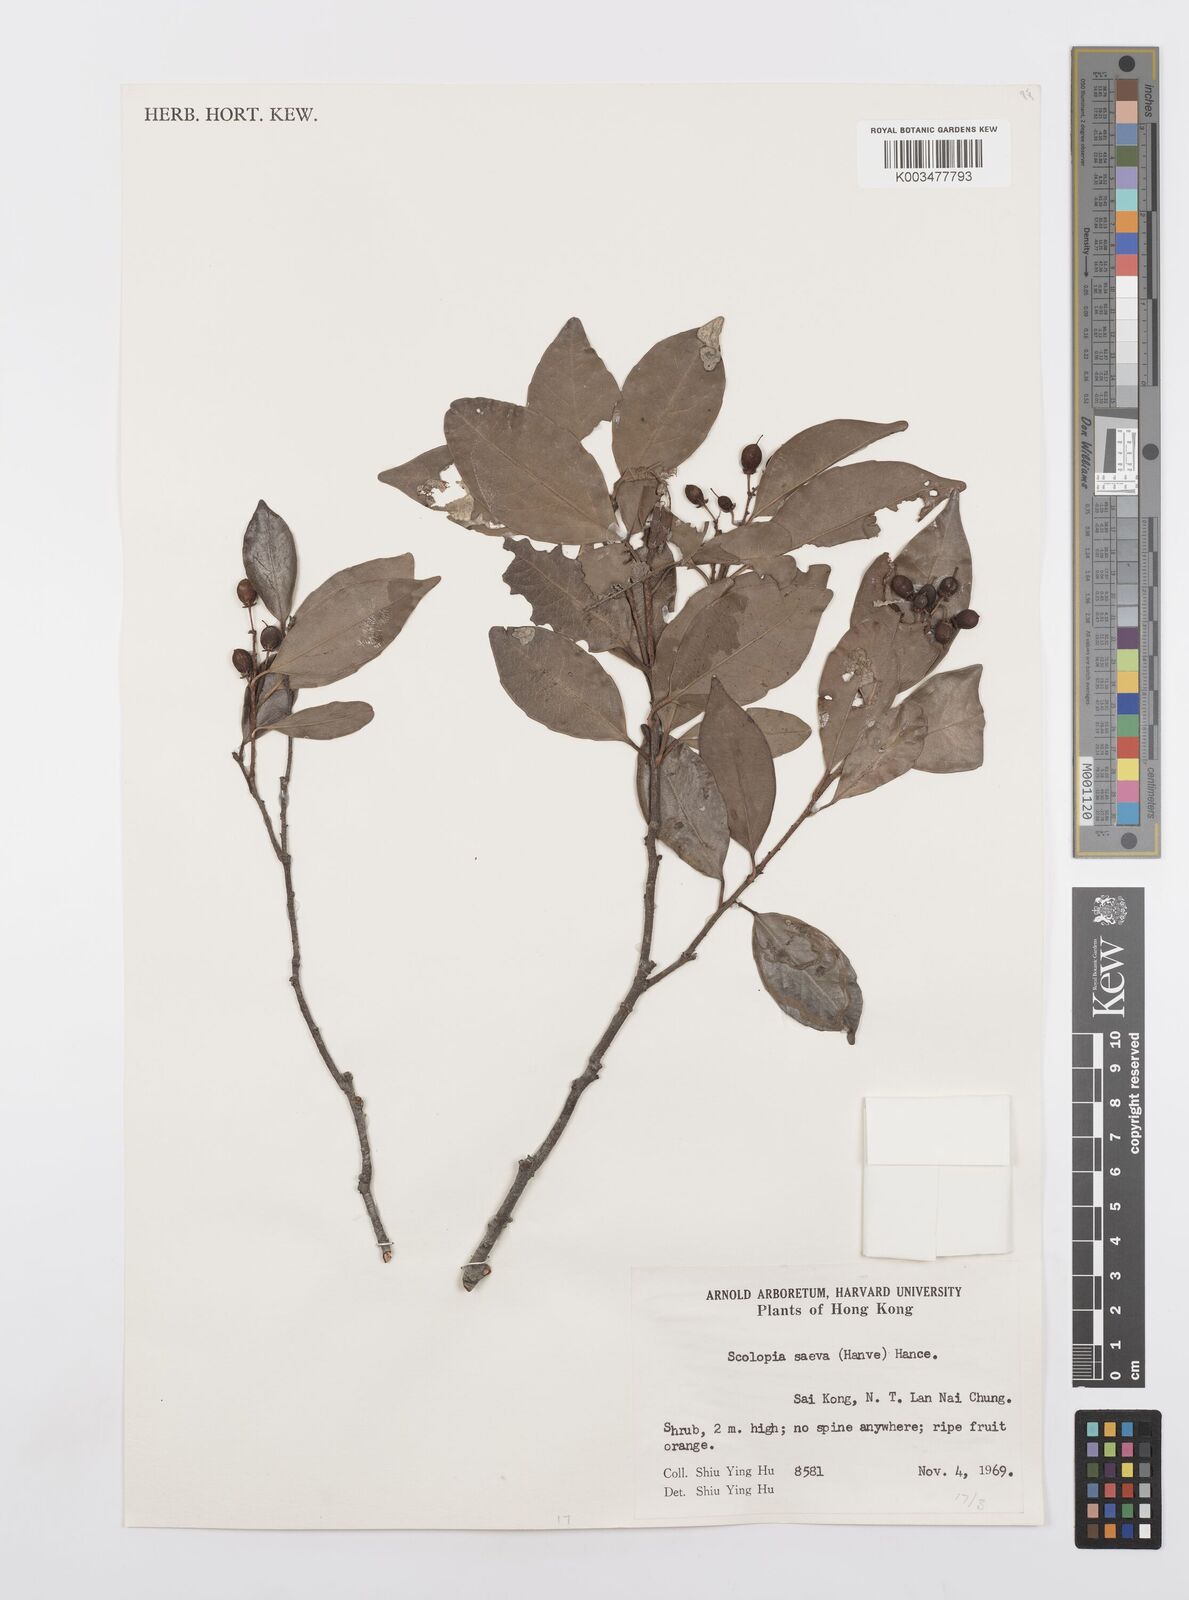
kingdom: Plantae
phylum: Tracheophyta
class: Magnoliopsida
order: Malpighiales
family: Salicaceae
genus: Scolopia
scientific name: Scolopia saeva
